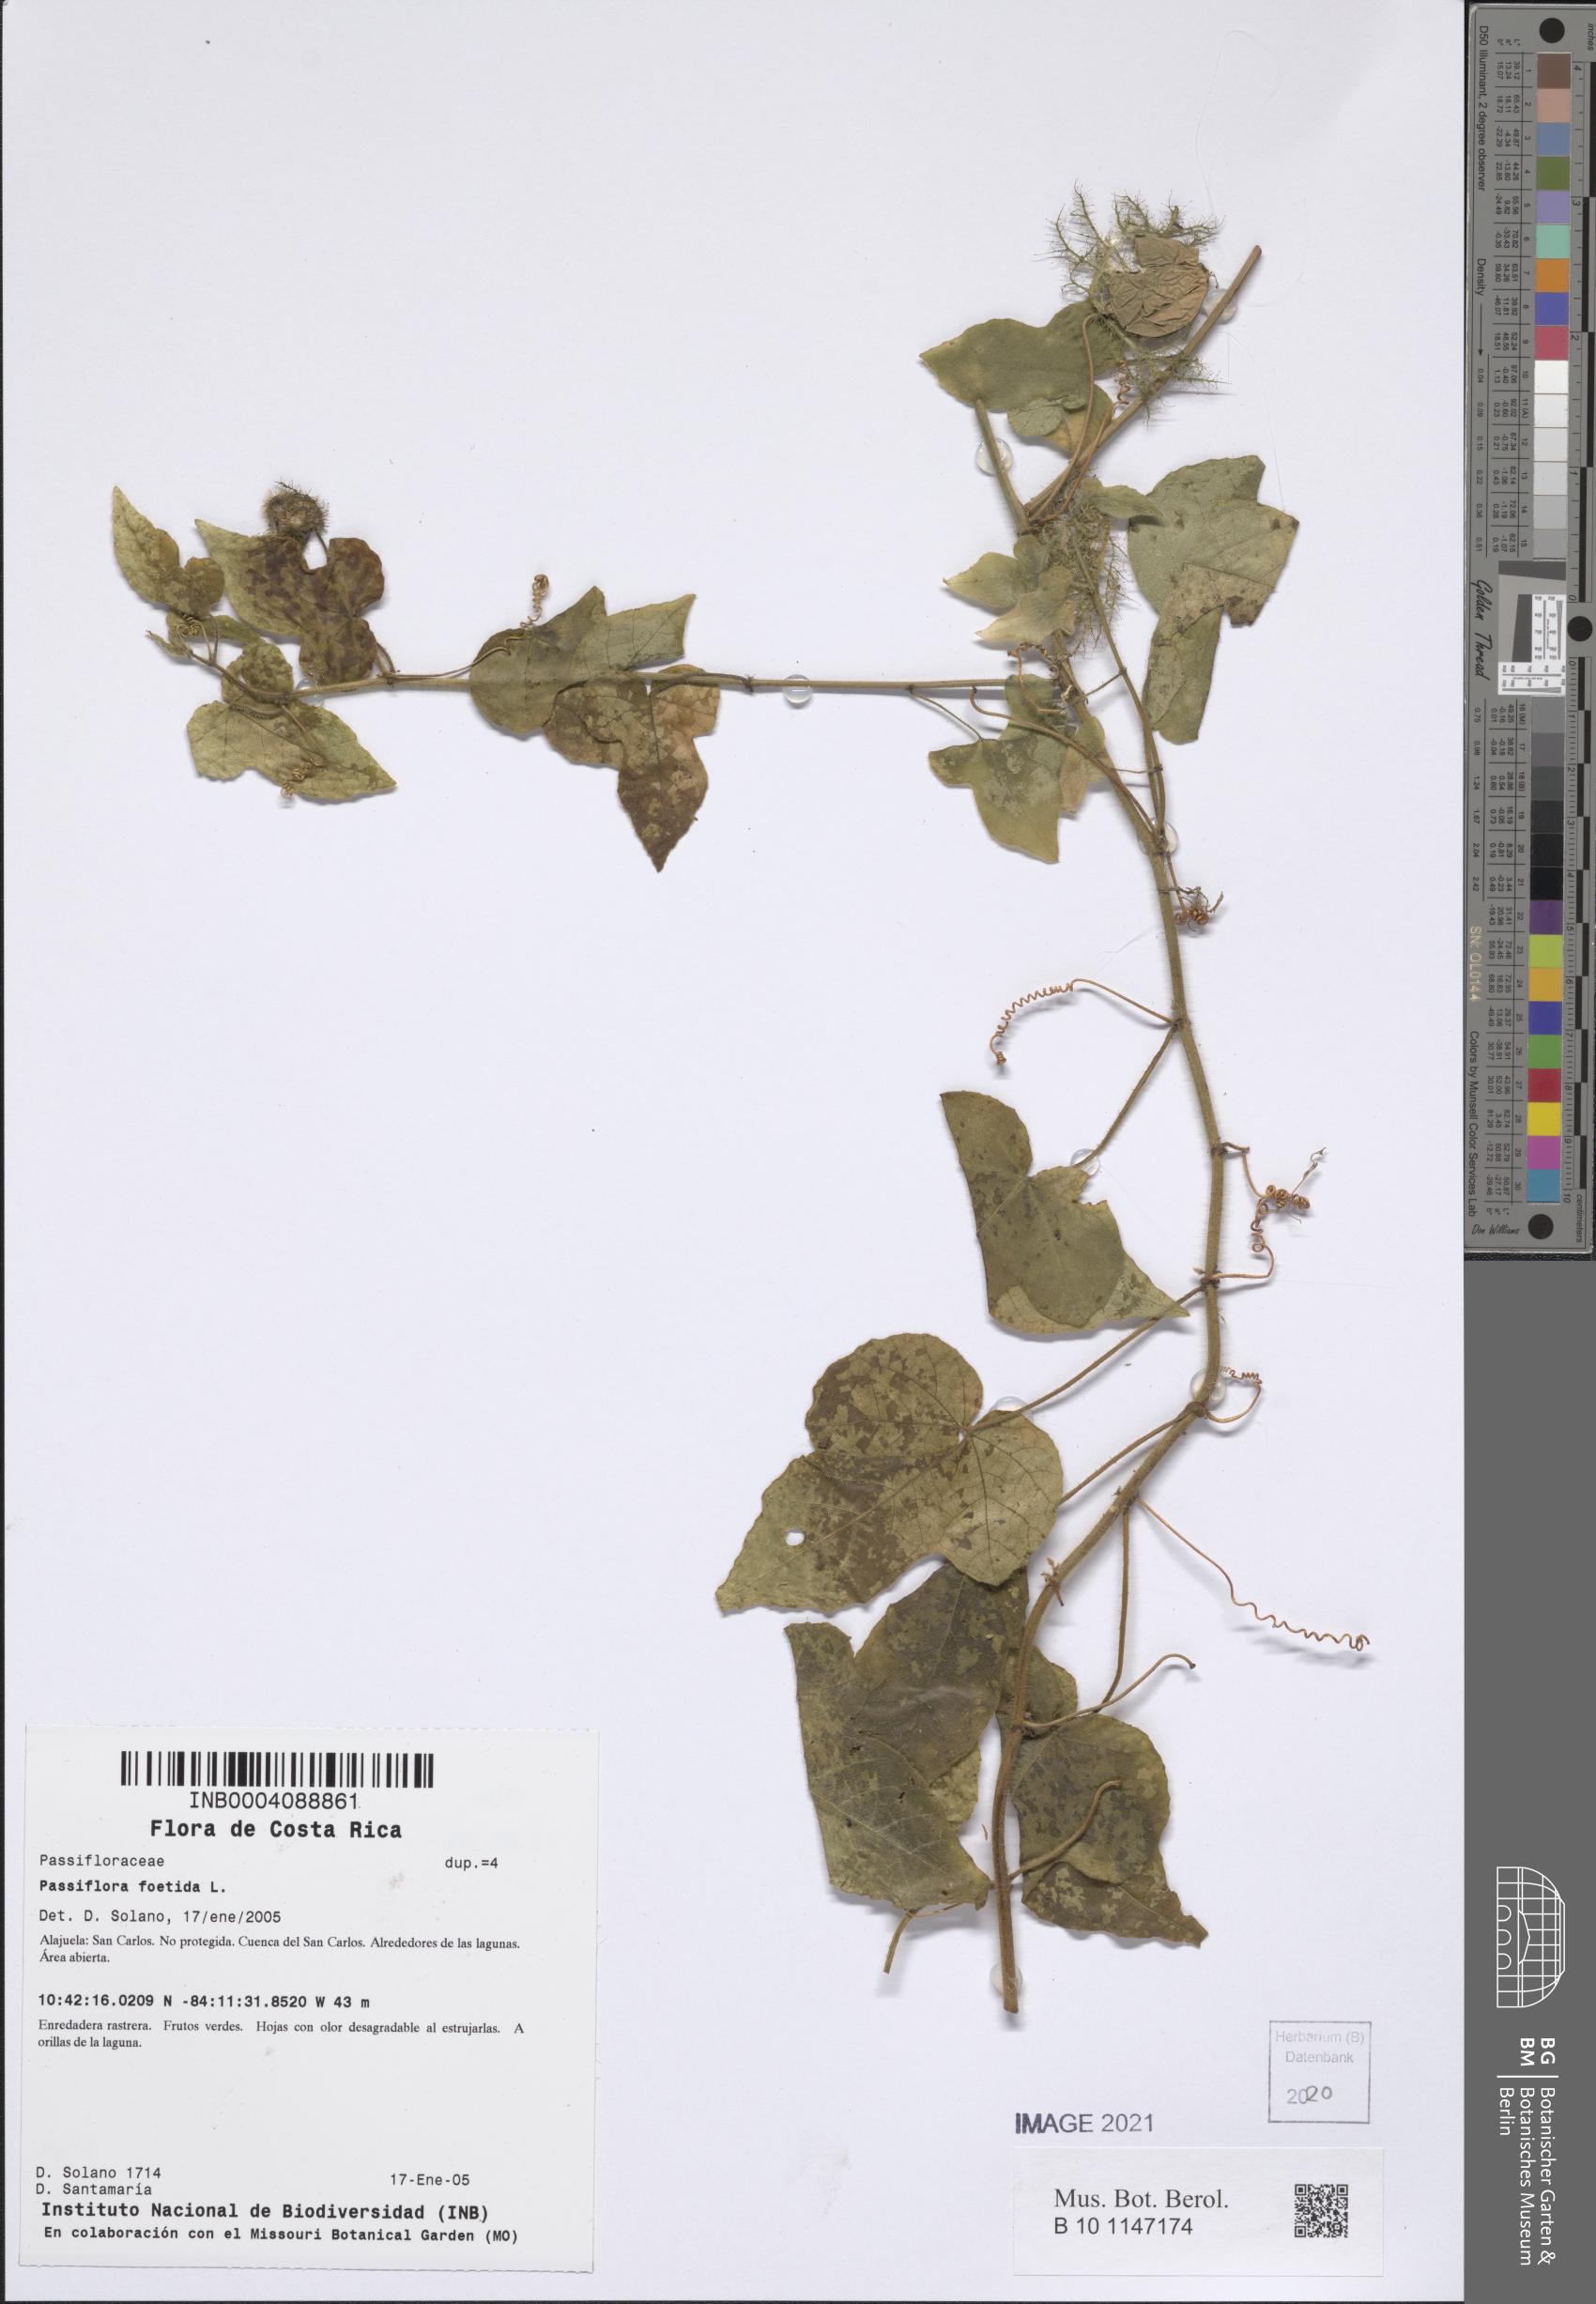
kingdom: Plantae
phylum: Tracheophyta
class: Magnoliopsida
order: Malpighiales
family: Passifloraceae
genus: Passiflora
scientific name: Passiflora foetida
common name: Fetid passionflower
